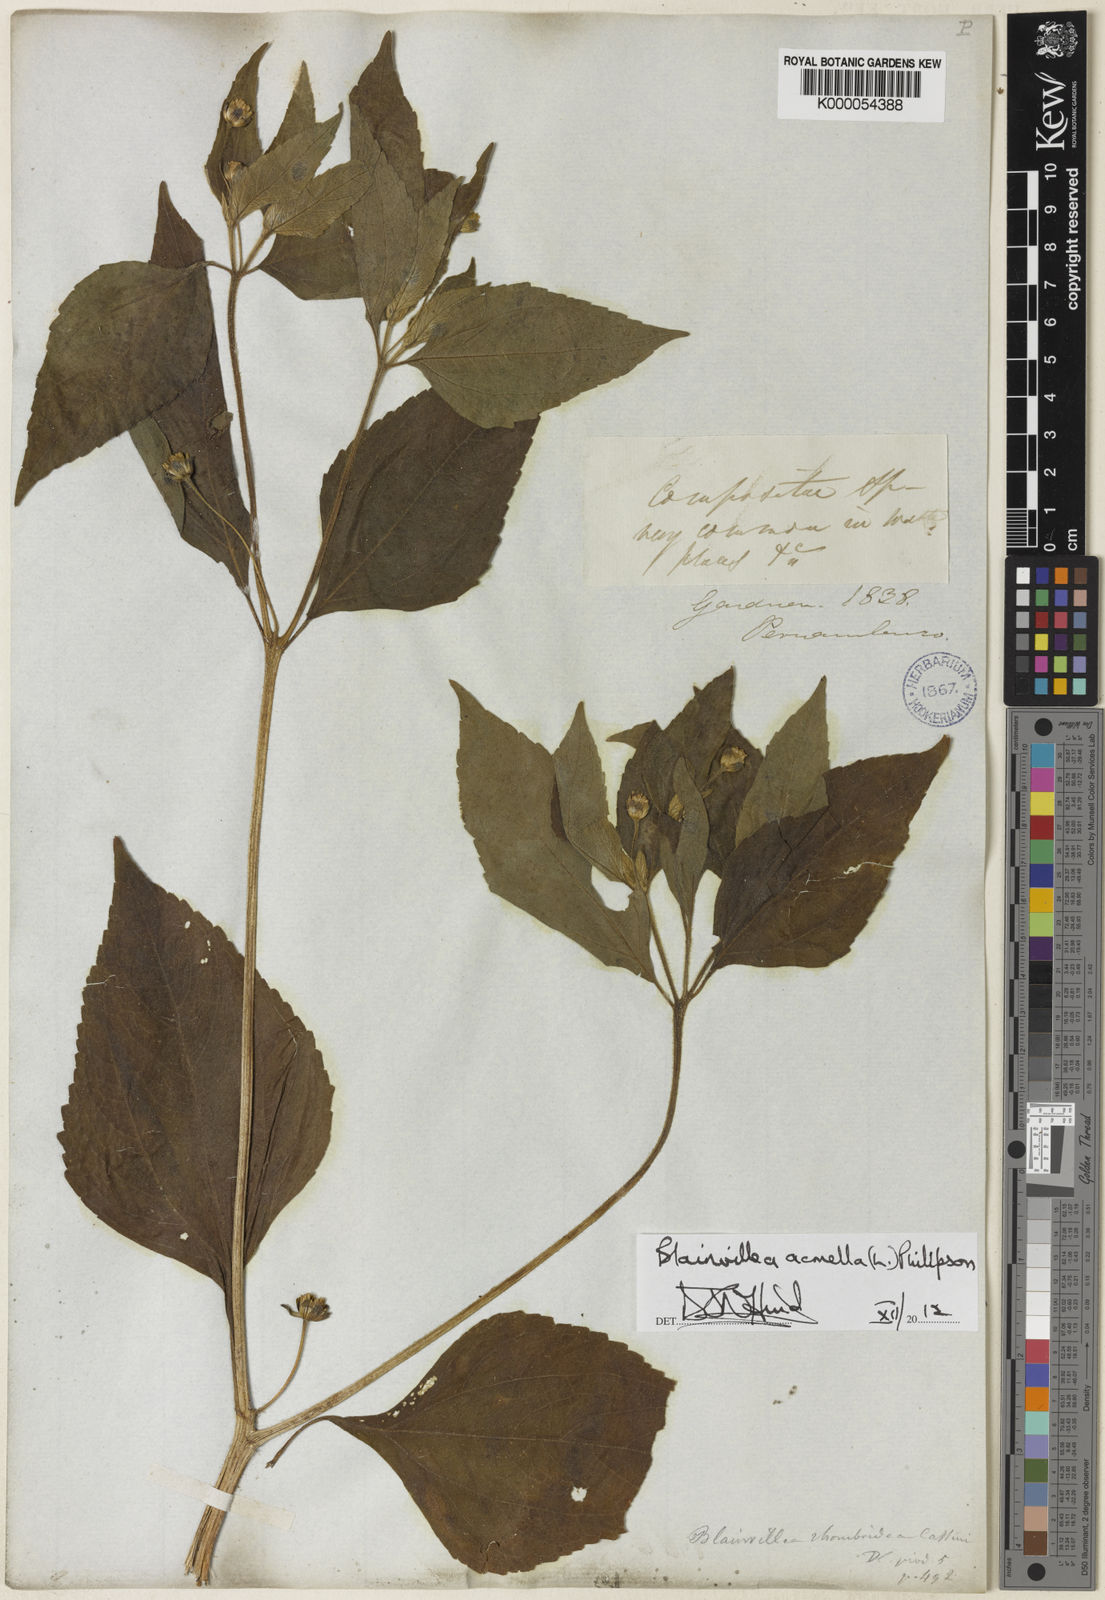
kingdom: Plantae
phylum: Tracheophyta
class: Magnoliopsida
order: Asterales
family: Asteraceae
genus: Blainvillea
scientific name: Blainvillea acmella
